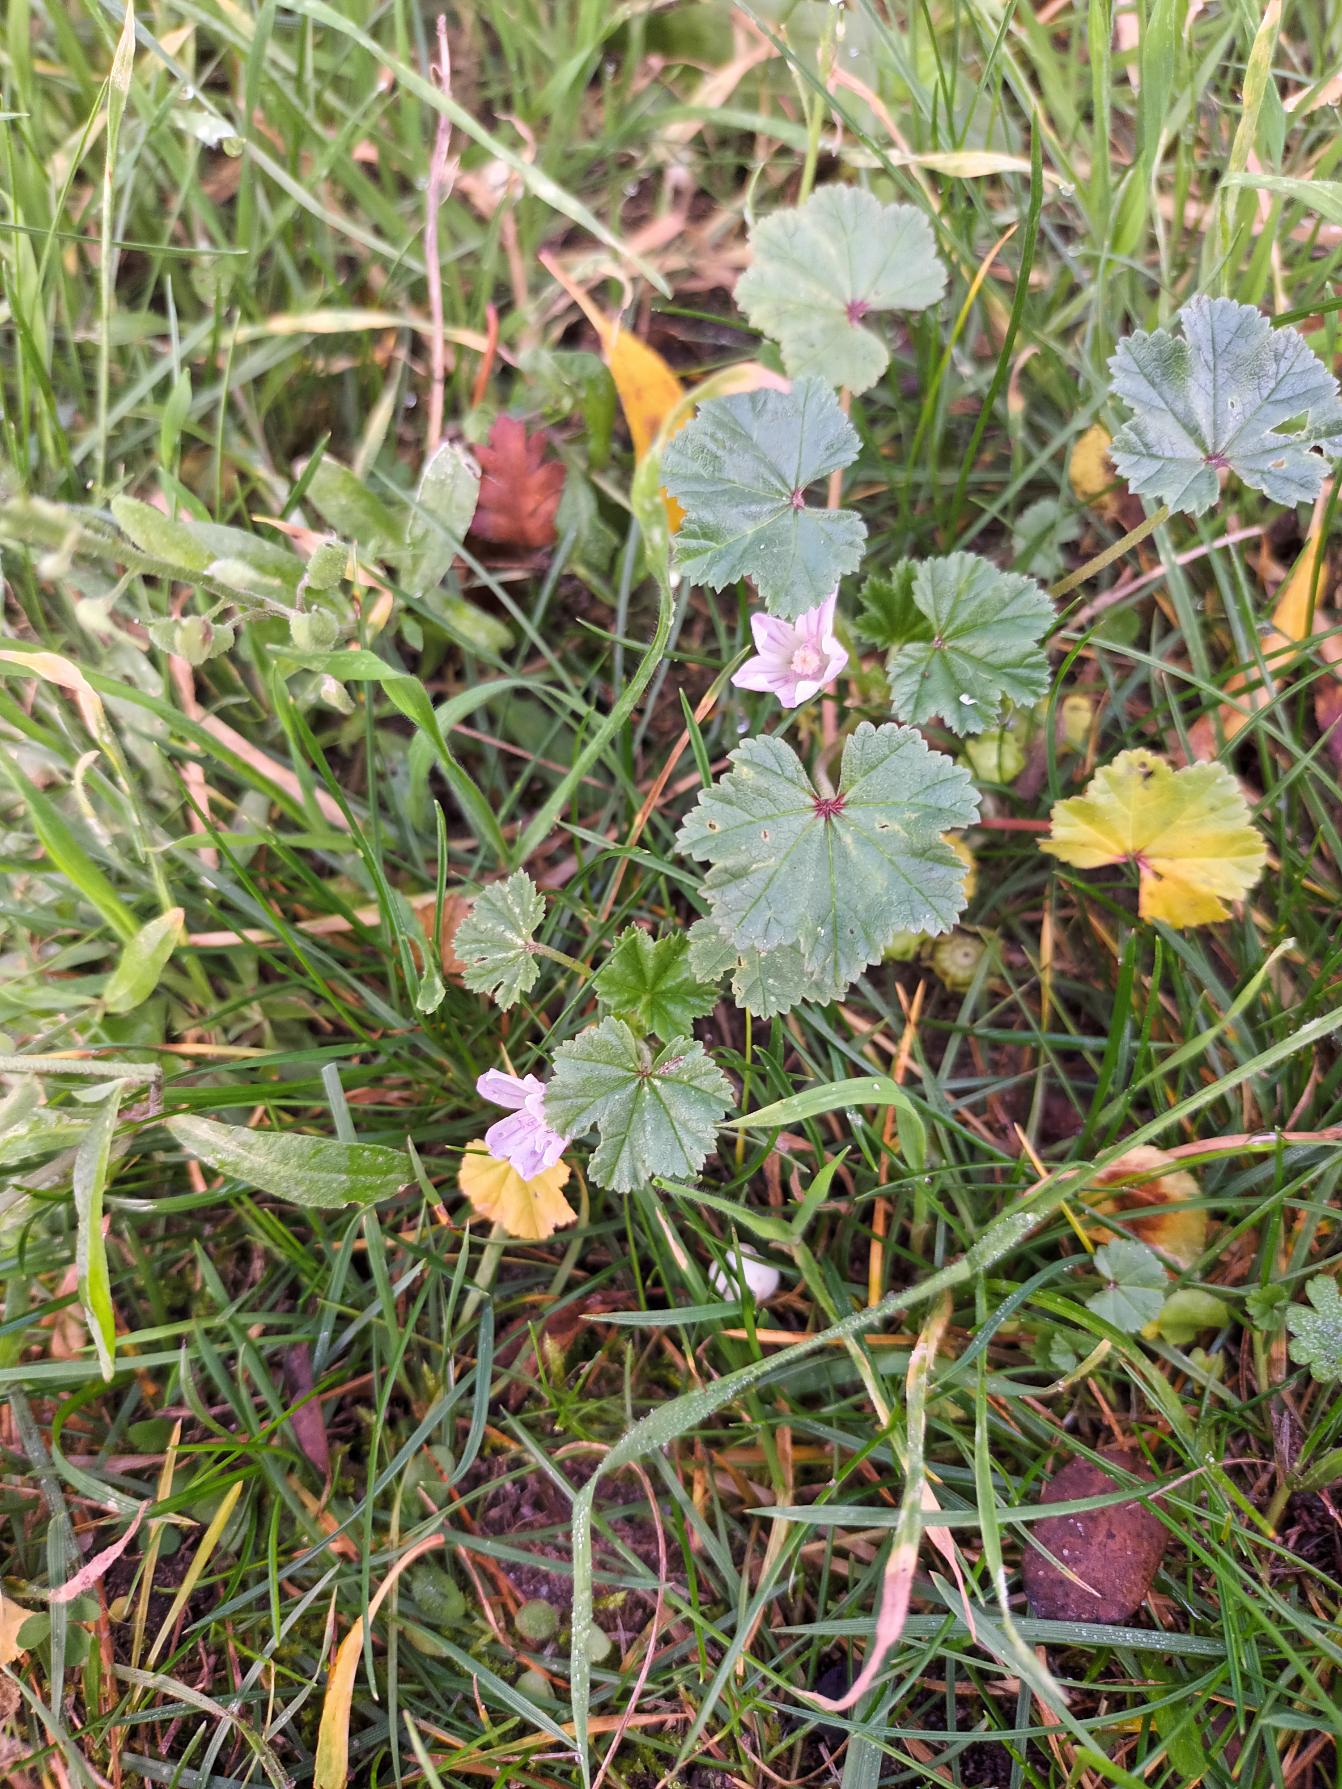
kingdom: Plantae
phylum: Tracheophyta
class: Magnoliopsida
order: Malvales
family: Malvaceae
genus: Malva
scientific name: Malva neglecta
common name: Rundbladet katost
